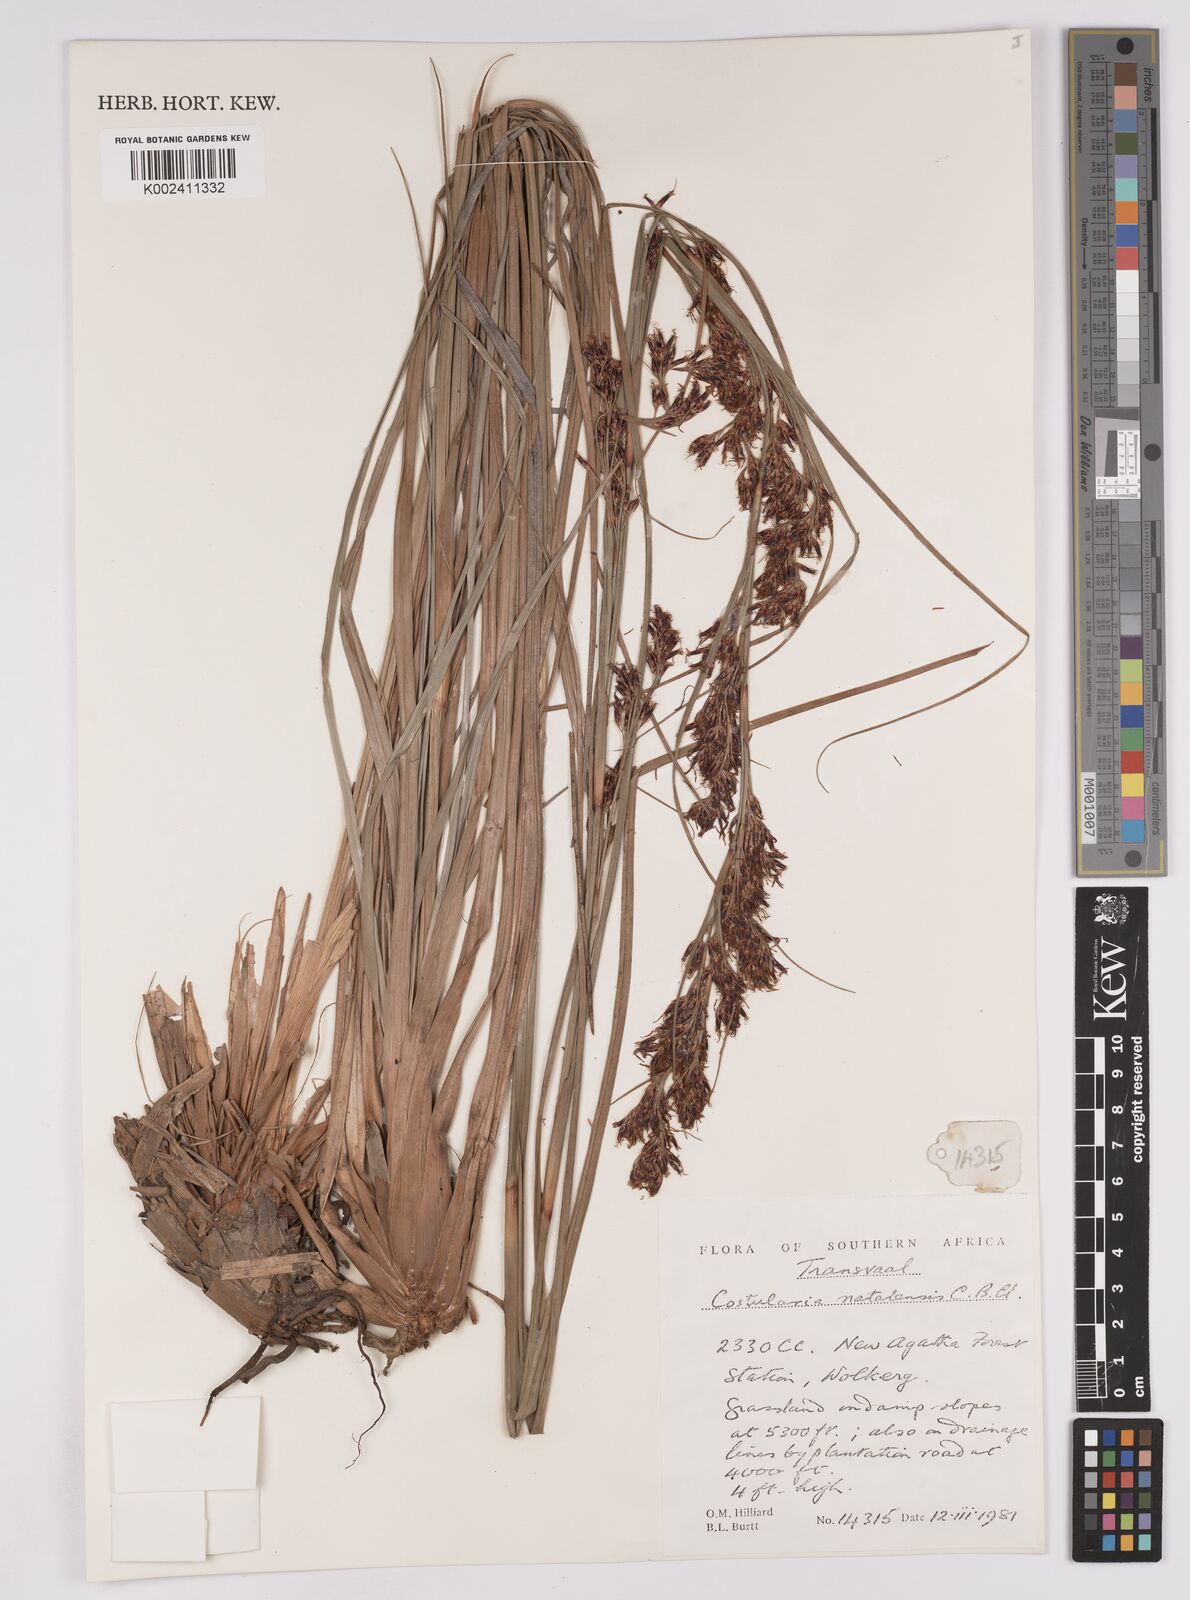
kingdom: Plantae
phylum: Tracheophyta
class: Liliopsida
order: Poales
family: Cyperaceae
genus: Costularia
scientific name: Costularia natalensis
